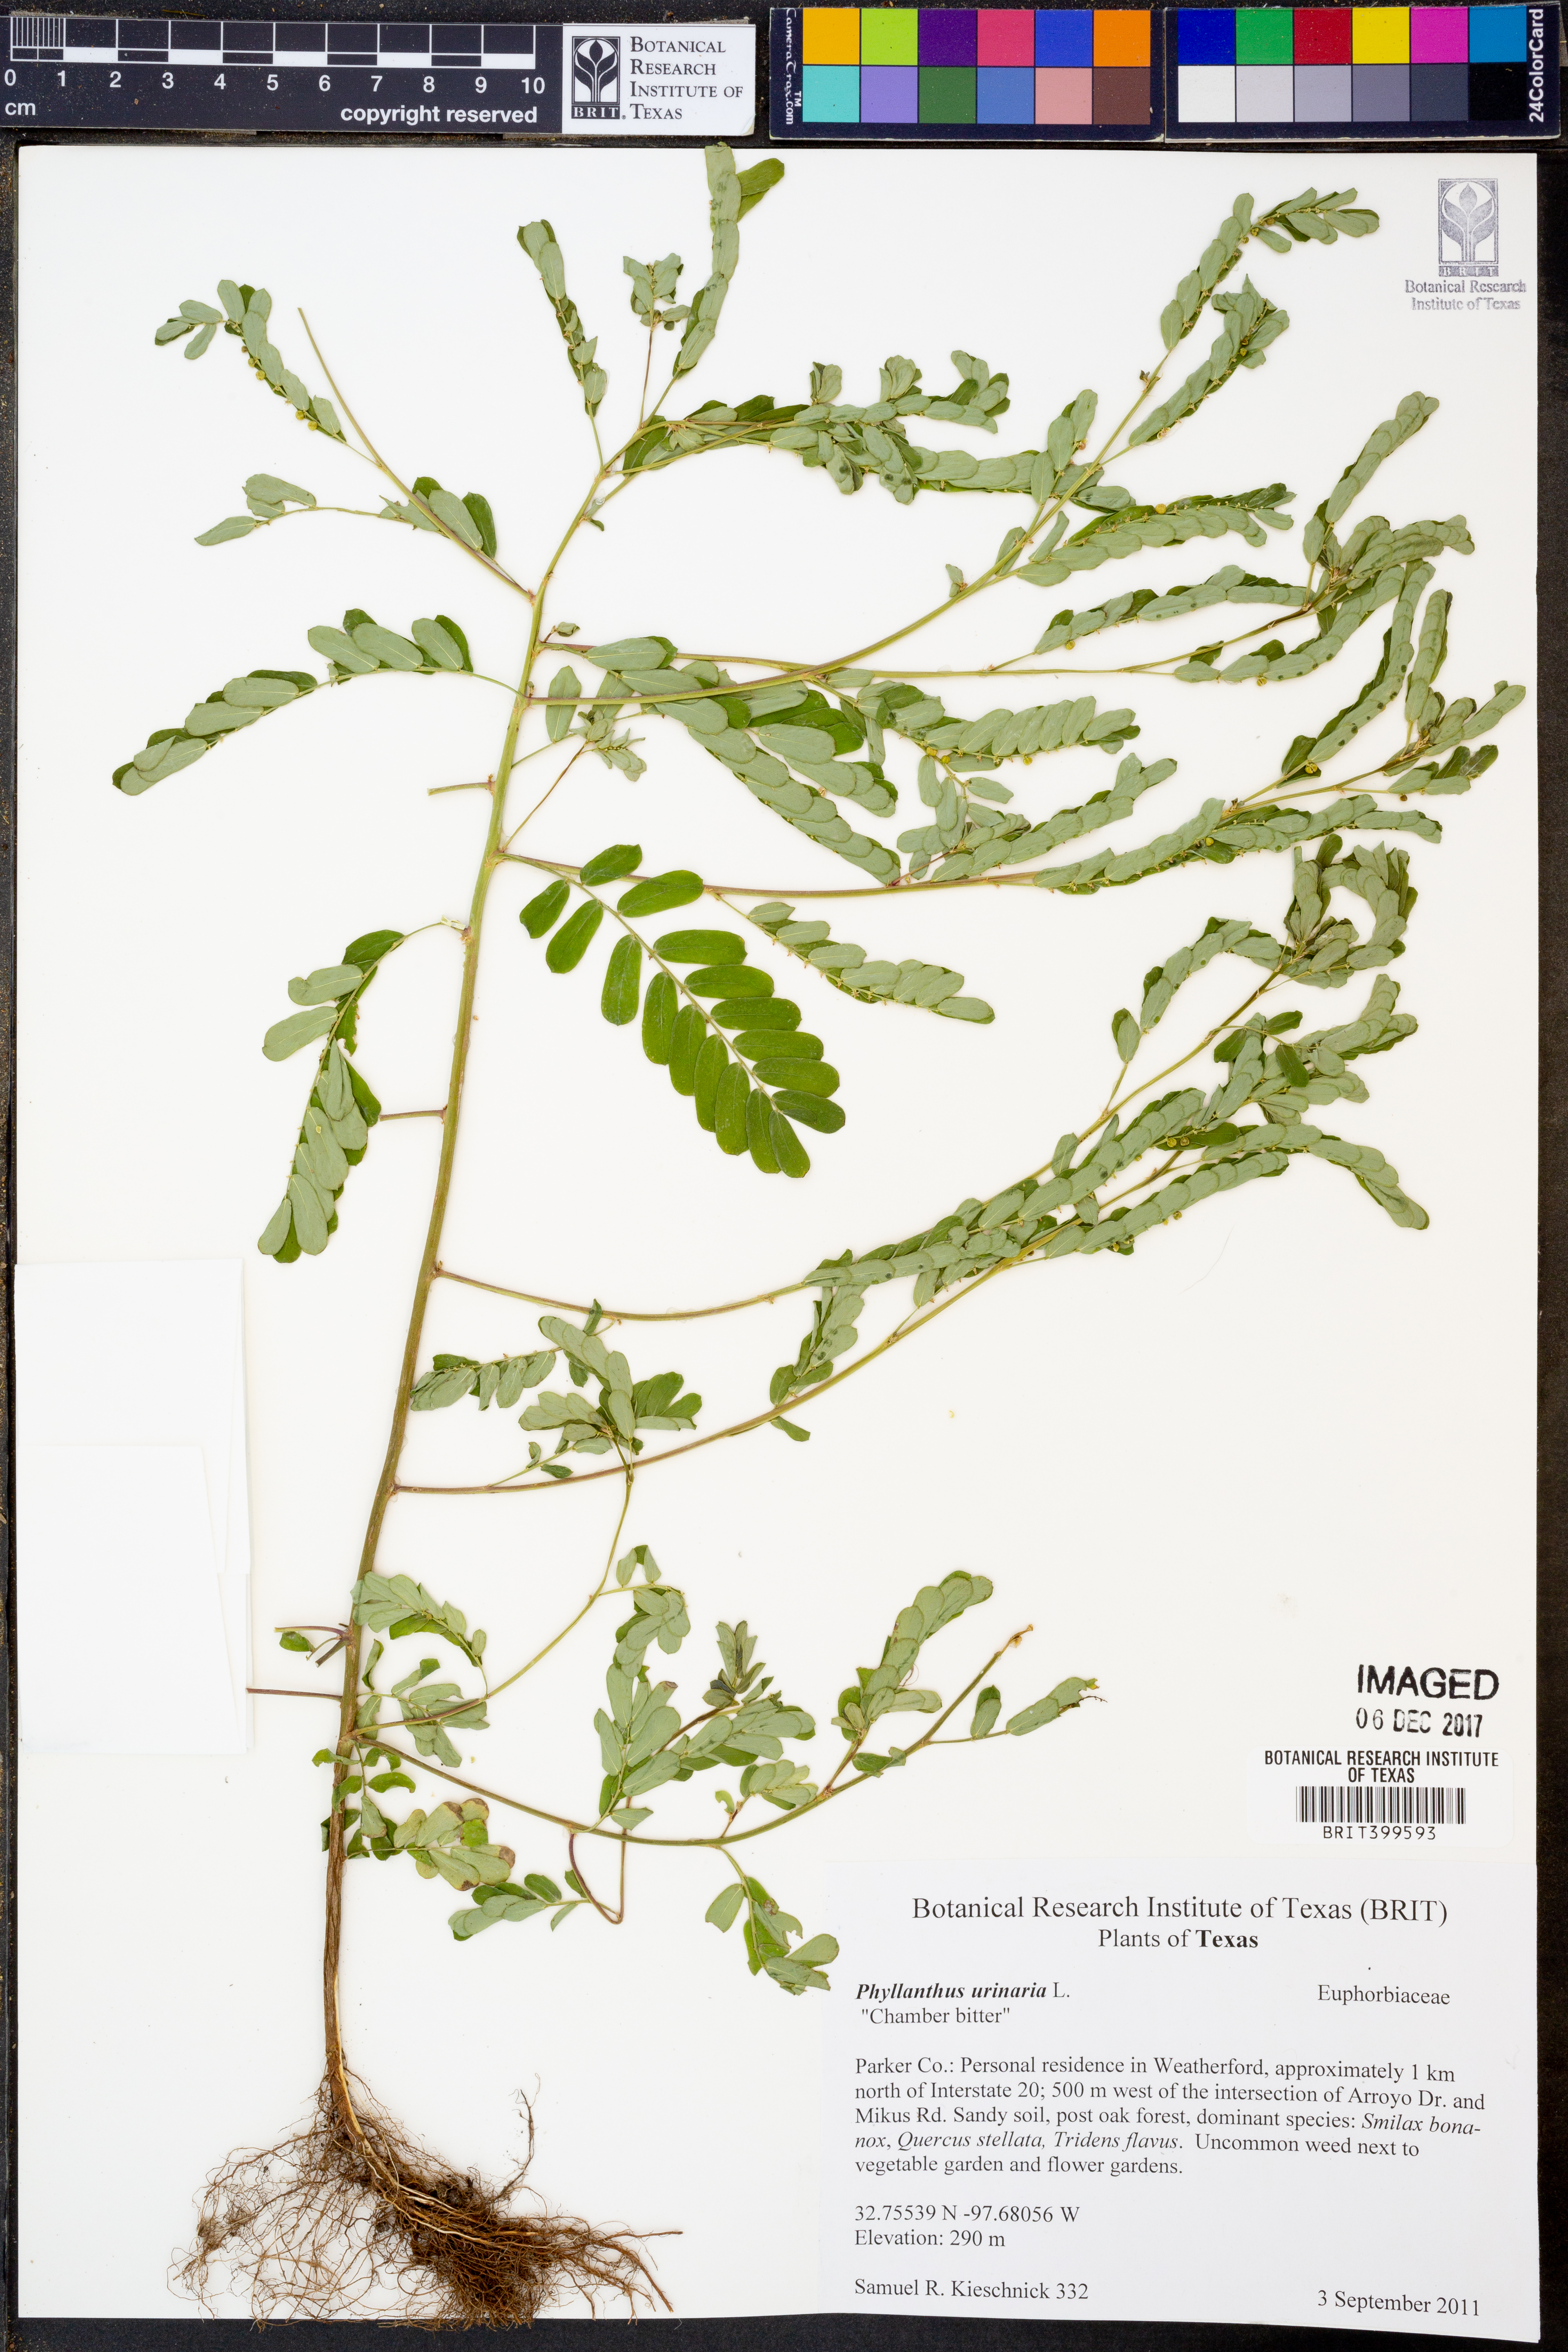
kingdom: Plantae
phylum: Tracheophyta
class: Magnoliopsida
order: Malpighiales
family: Phyllanthaceae
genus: Phyllanthus
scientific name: Phyllanthus urinaria
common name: Chamber bitter
